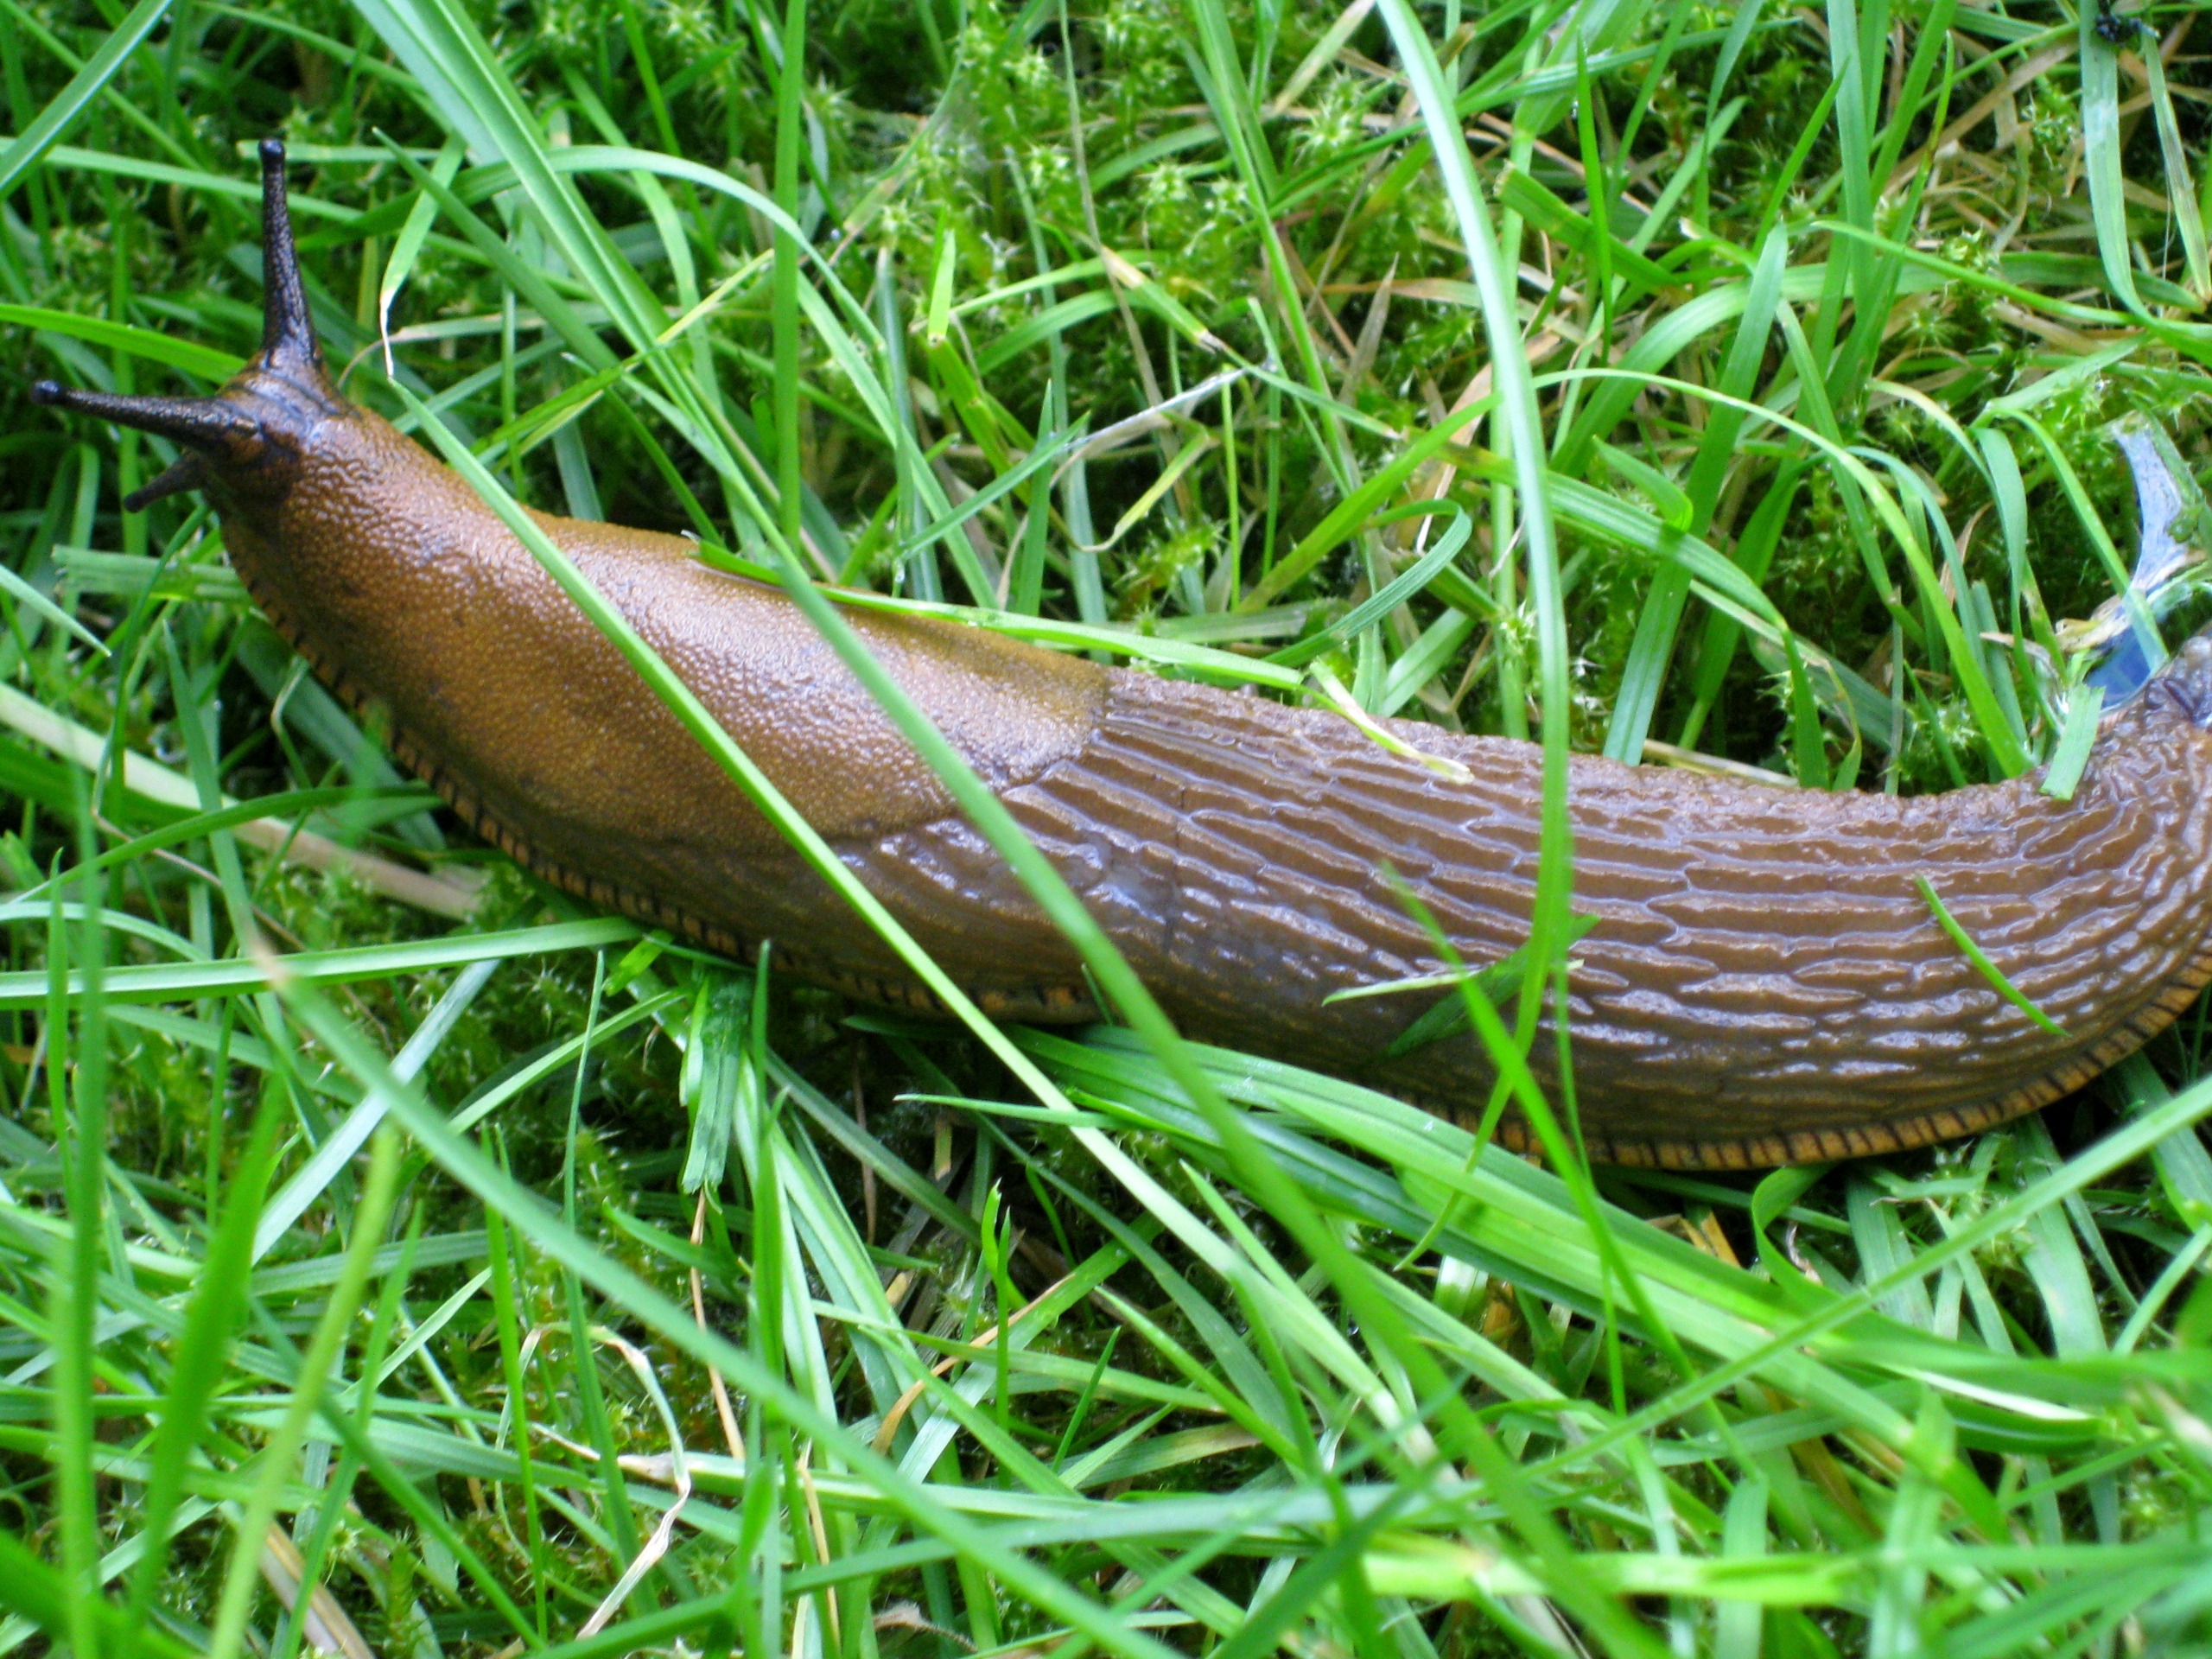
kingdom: Animalia
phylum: Mollusca
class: Gastropoda
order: Stylommatophora
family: Arionidae
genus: Arion
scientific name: Arion vulgaris
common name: Iberisk skovsnegl
